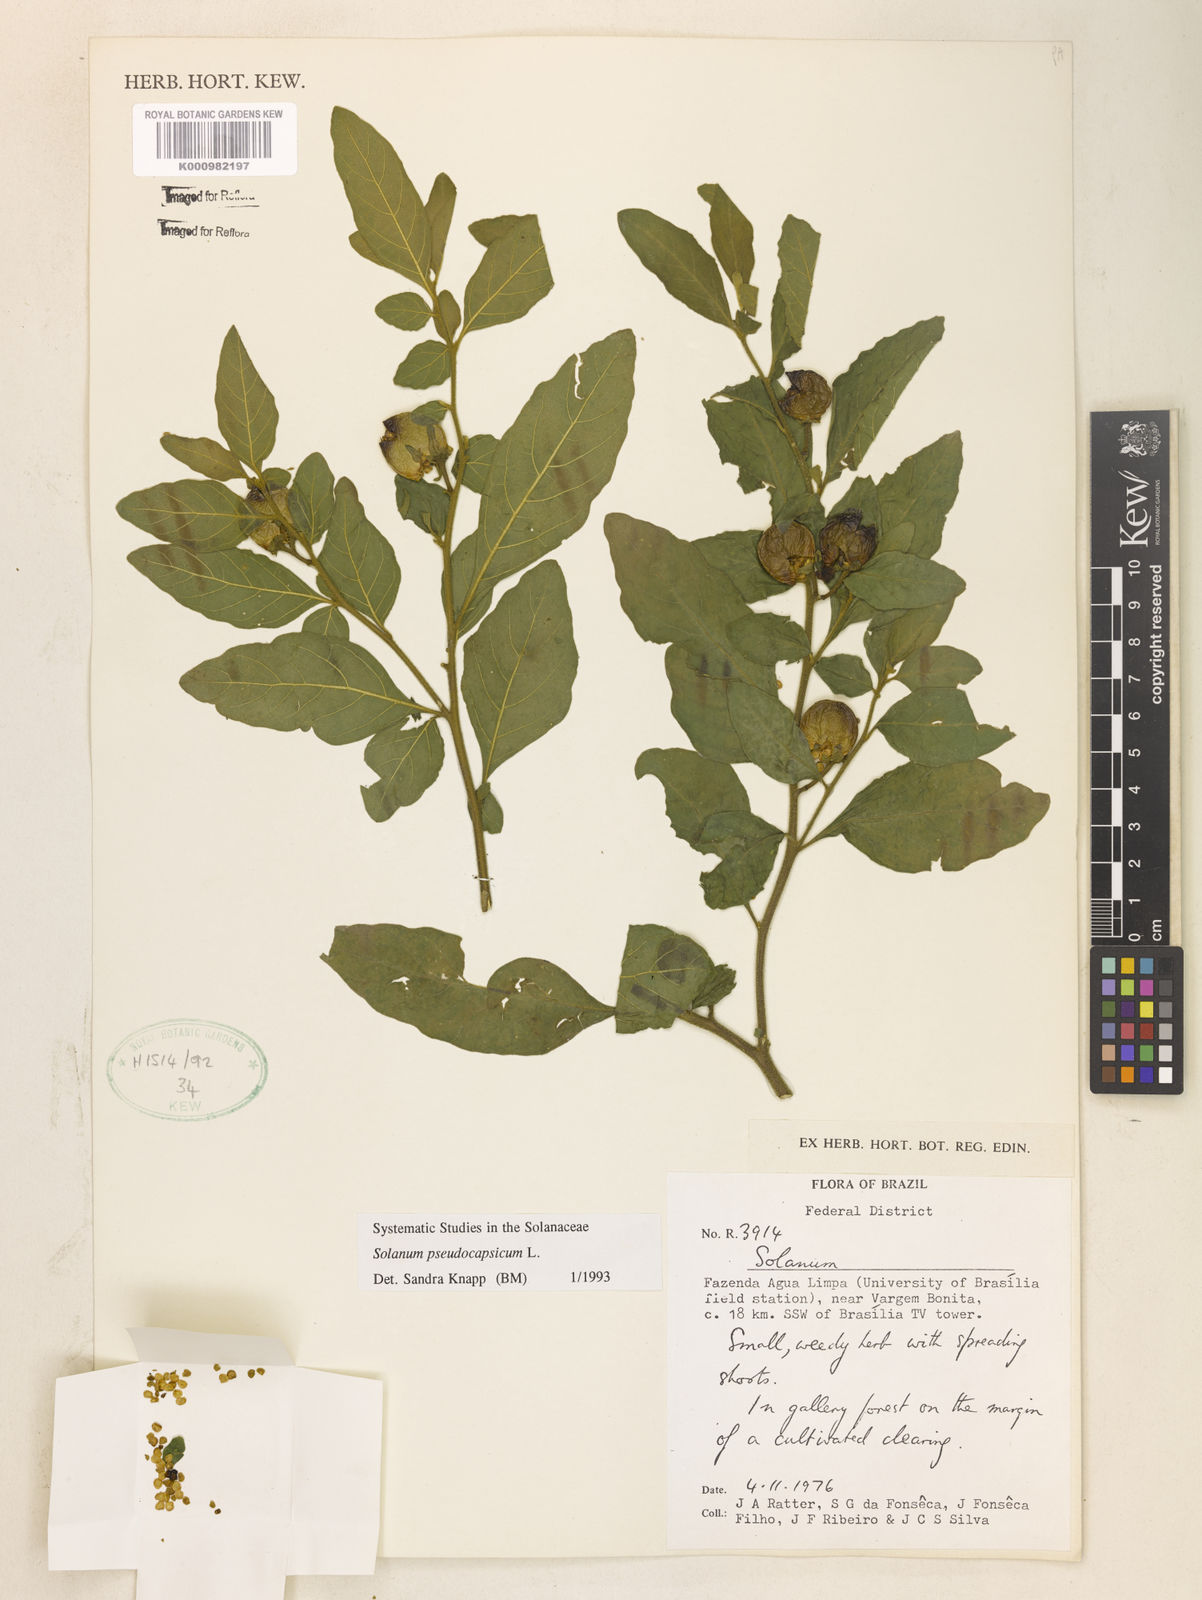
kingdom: Plantae
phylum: Tracheophyta
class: Magnoliopsida
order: Solanales
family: Solanaceae
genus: Solanum
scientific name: Solanum pseudocapsicum
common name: Jerusalem cherry
